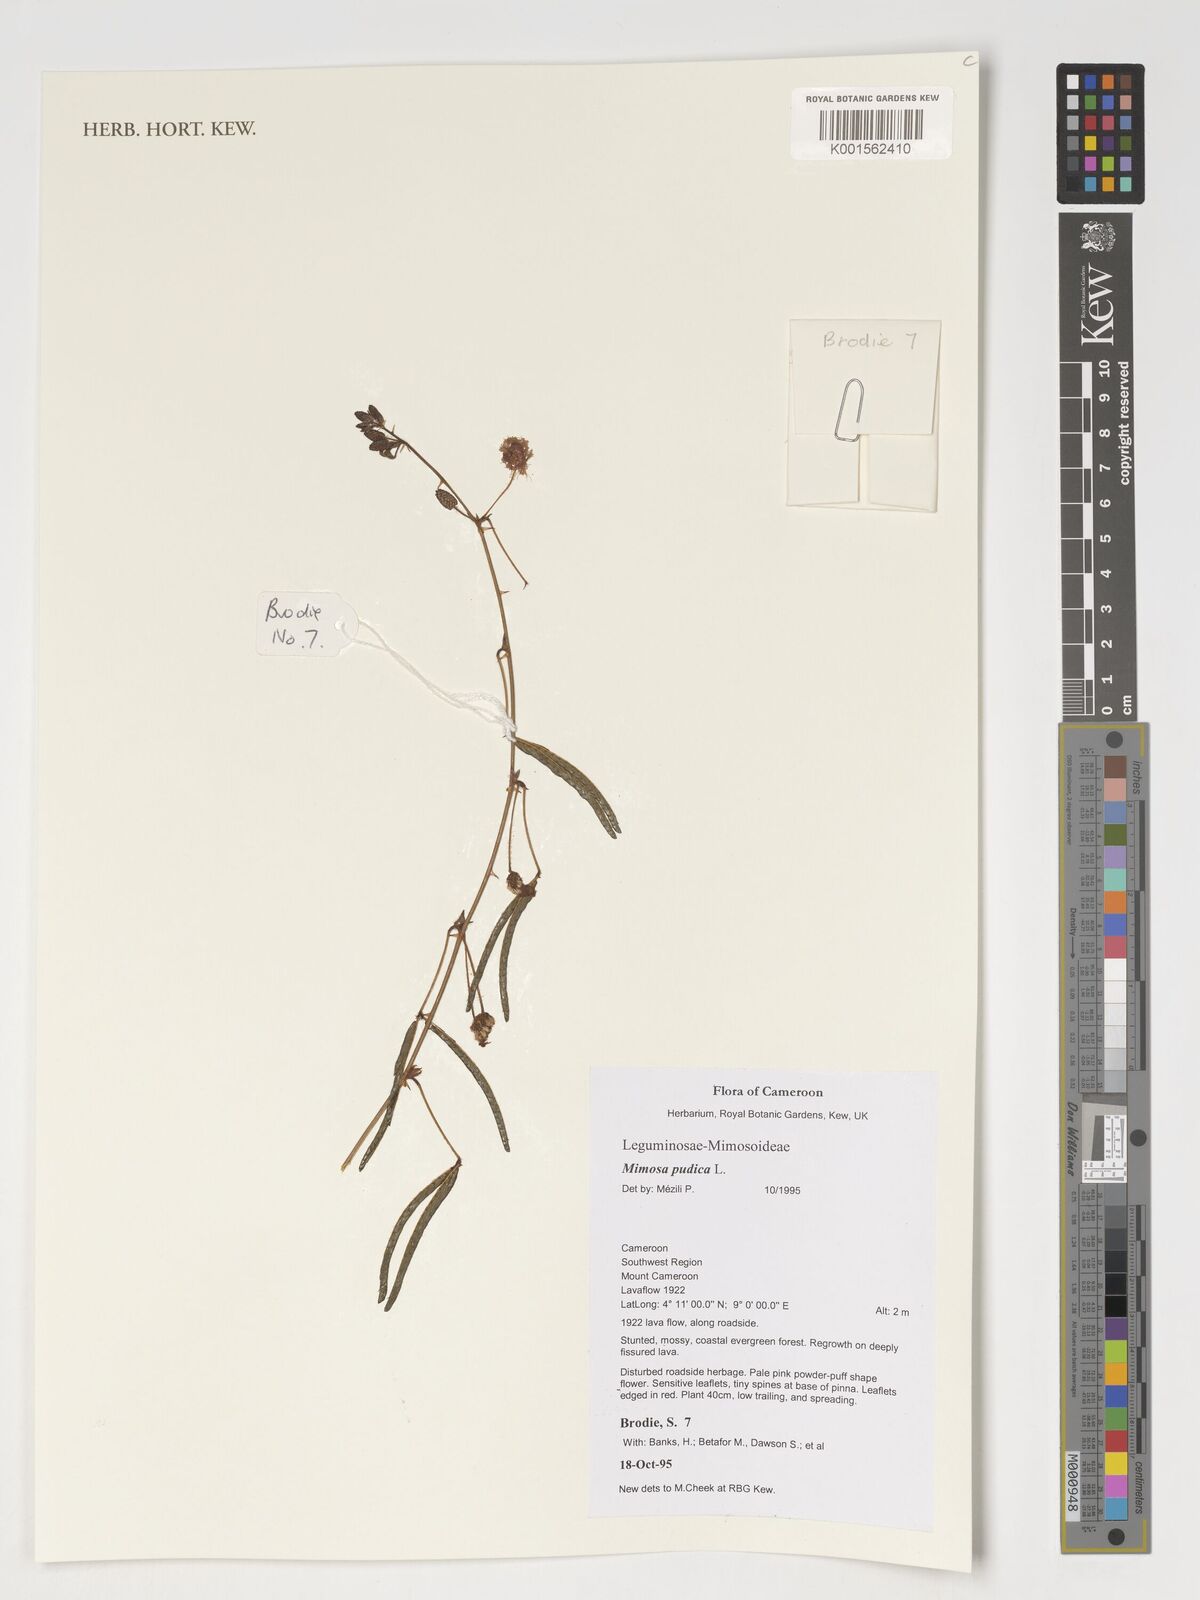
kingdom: Plantae
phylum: Tracheophyta
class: Magnoliopsida
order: Fabales
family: Fabaceae
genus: Mimosa
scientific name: Mimosa pudica
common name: Sensitive plant
